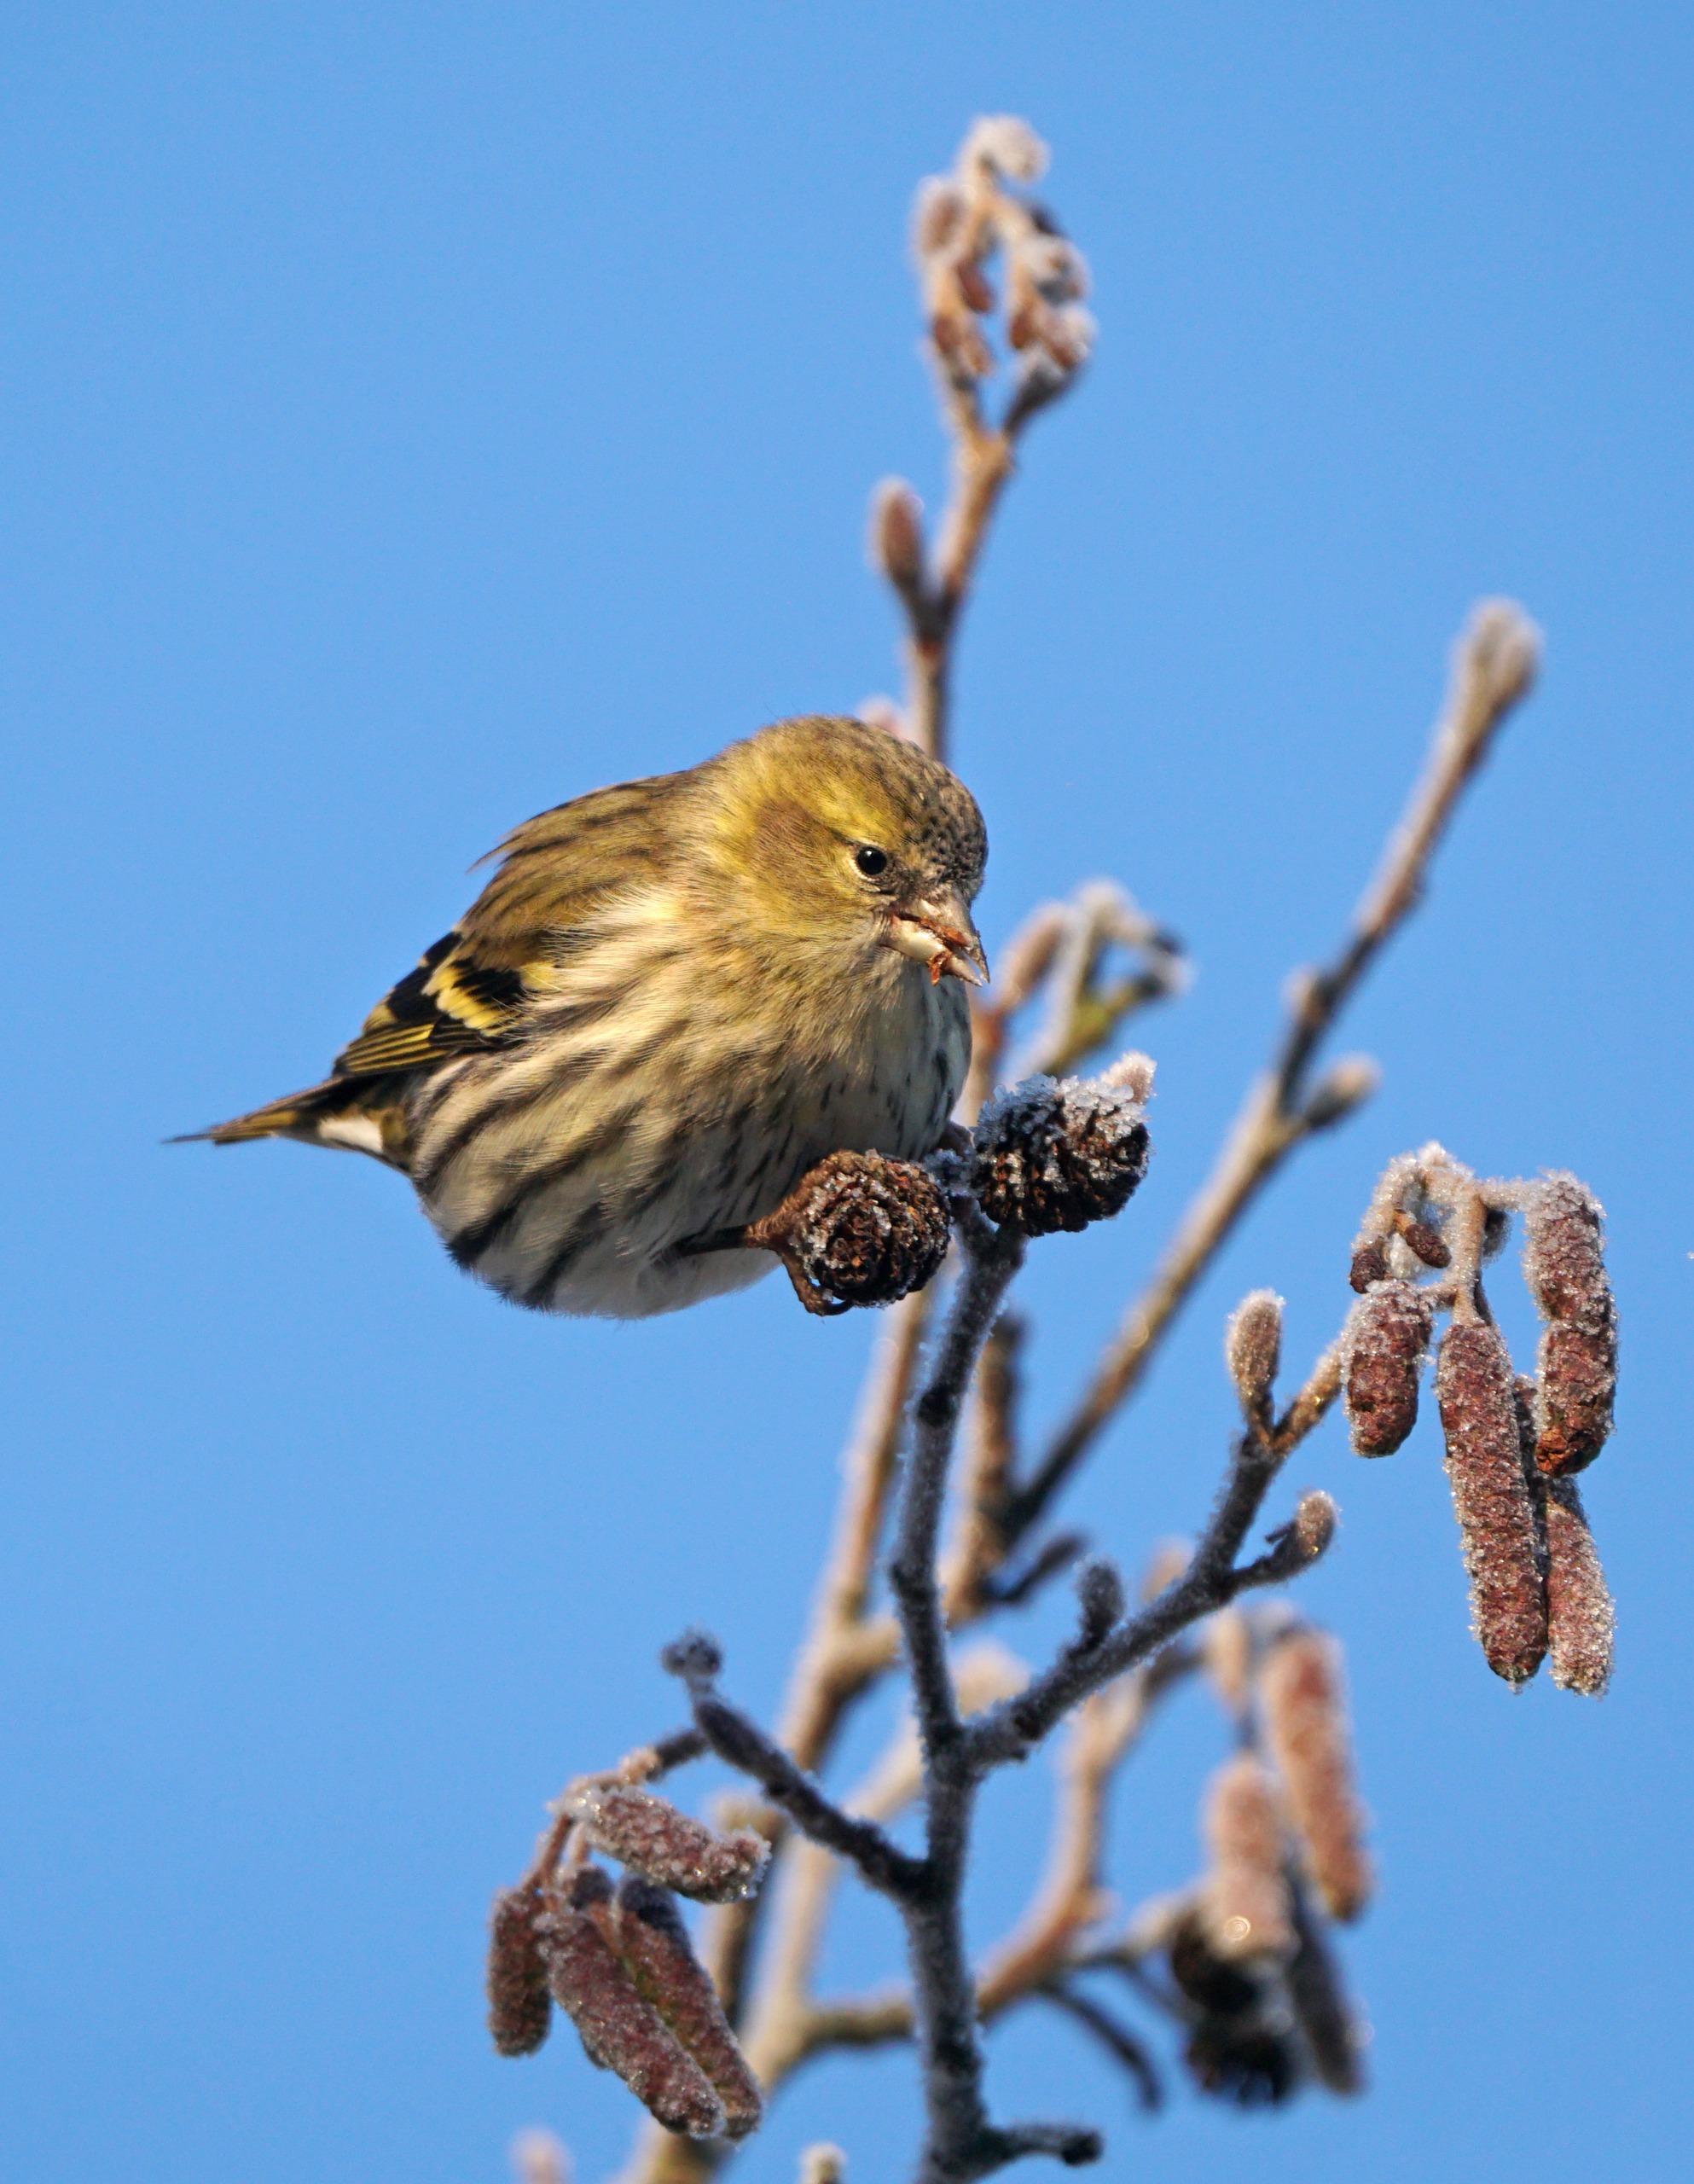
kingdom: Animalia
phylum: Chordata
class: Aves
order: Passeriformes
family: Fringillidae
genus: Spinus
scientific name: Spinus spinus
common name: Grønsisken
